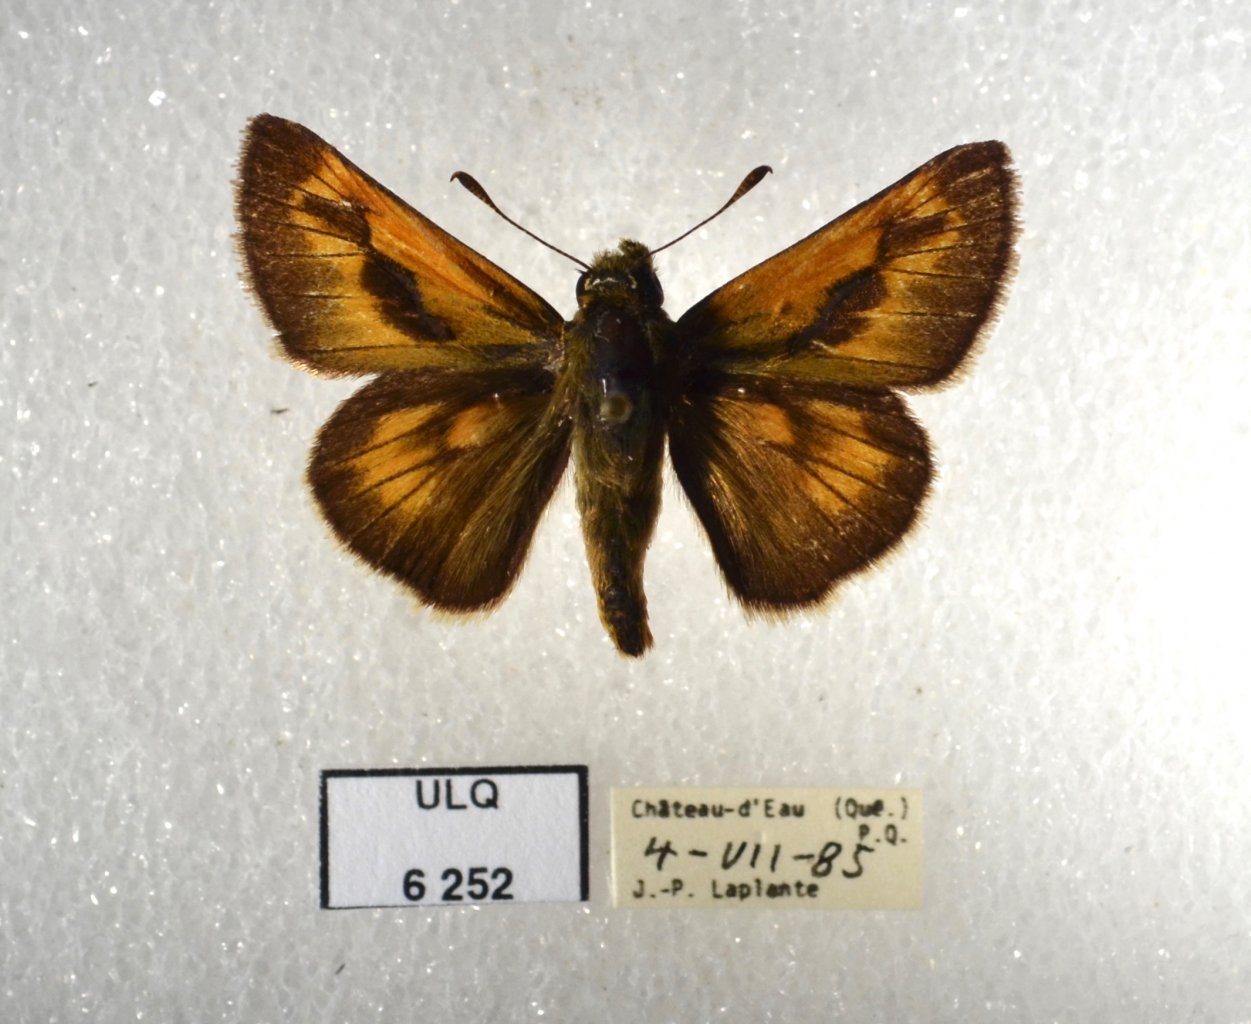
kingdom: Animalia
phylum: Arthropoda
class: Insecta
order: Lepidoptera
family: Hesperiidae
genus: Polites
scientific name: Polites
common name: Long Dash Skipper
